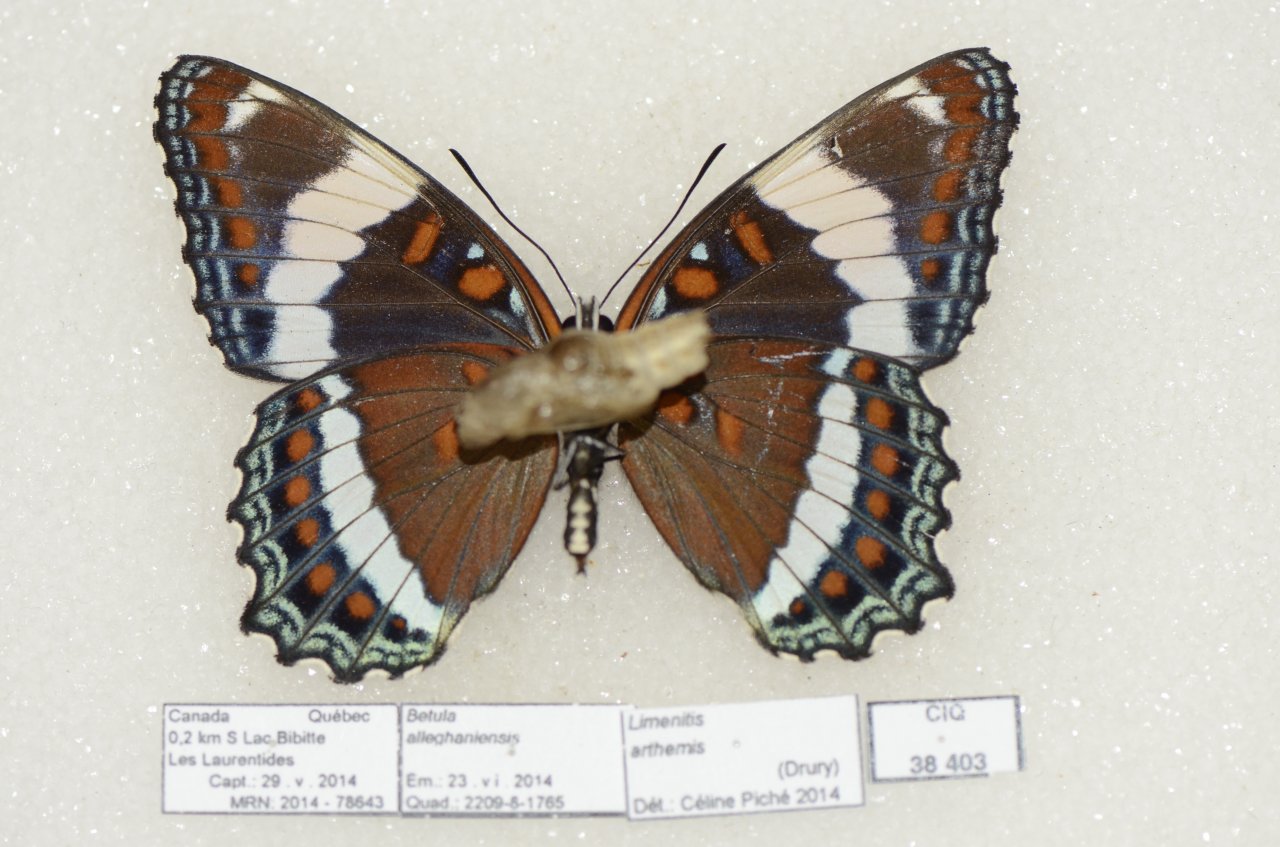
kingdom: Animalia
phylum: Arthropoda
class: Insecta
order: Lepidoptera
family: Nymphalidae
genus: Limenitis
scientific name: Limenitis arthemis
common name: Red-spotted Admiral
